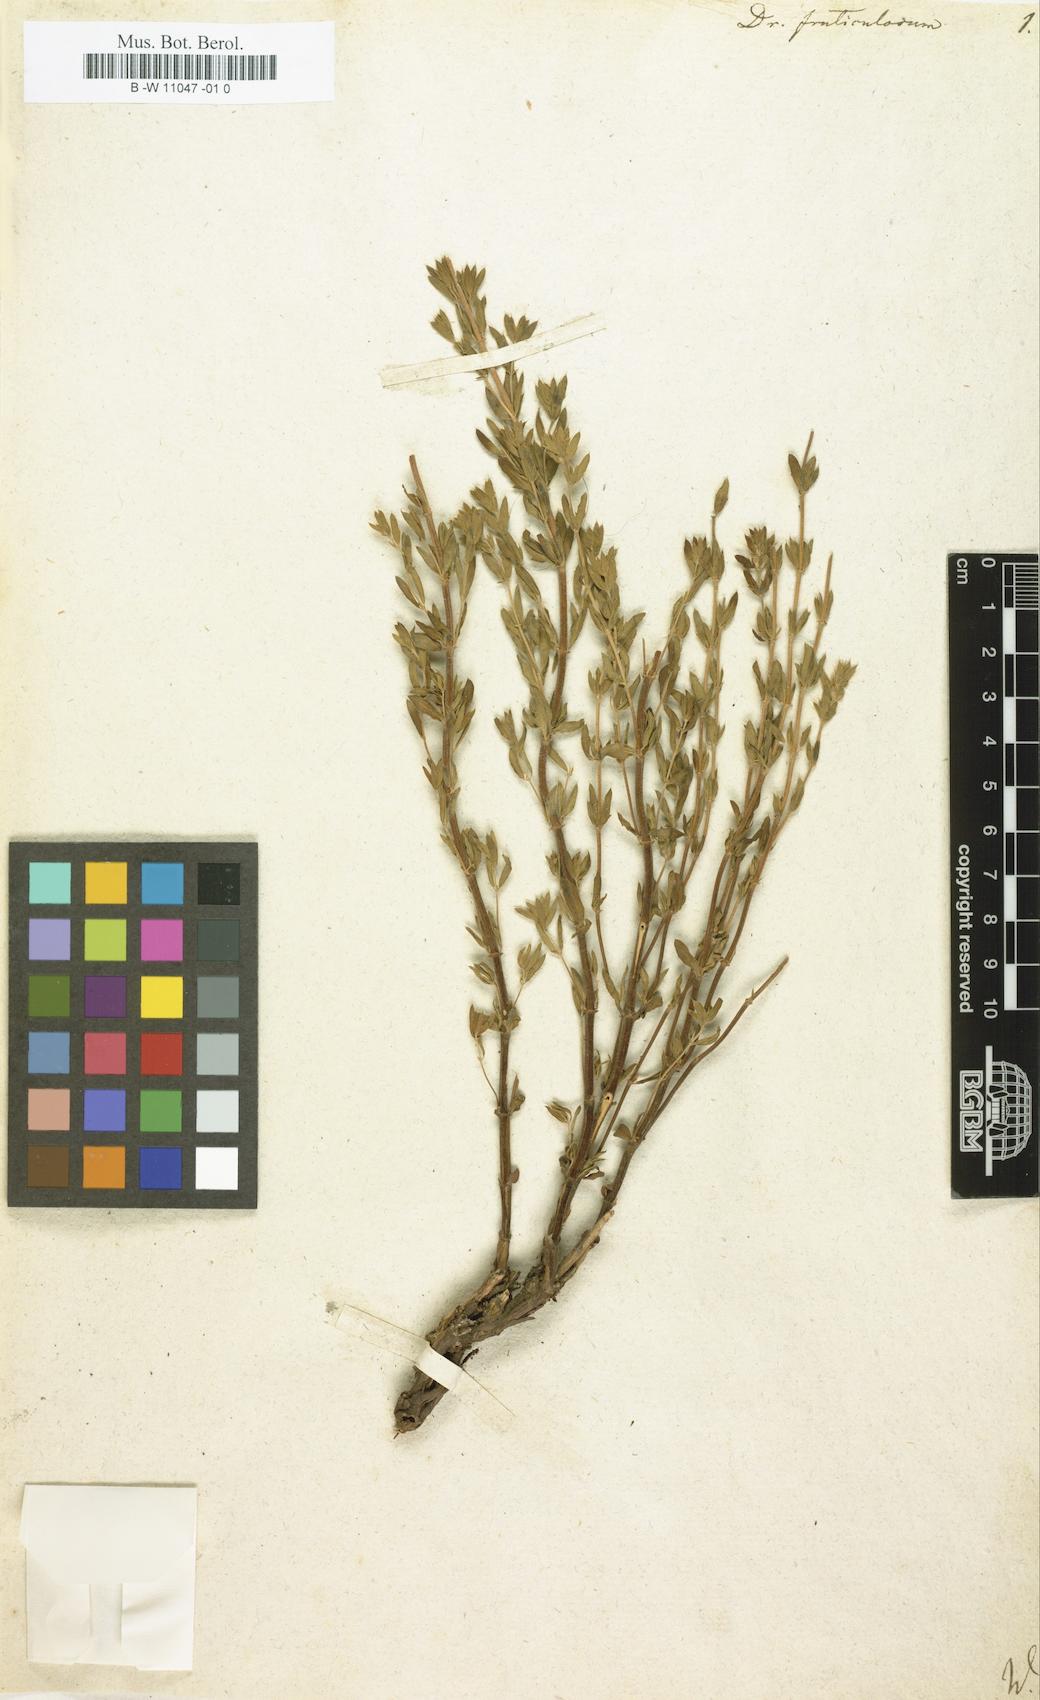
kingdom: Plantae
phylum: Tracheophyta
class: Magnoliopsida
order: Lamiales
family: Lamiaceae
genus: Dracocephalum
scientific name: Dracocephalum fruticulosum
